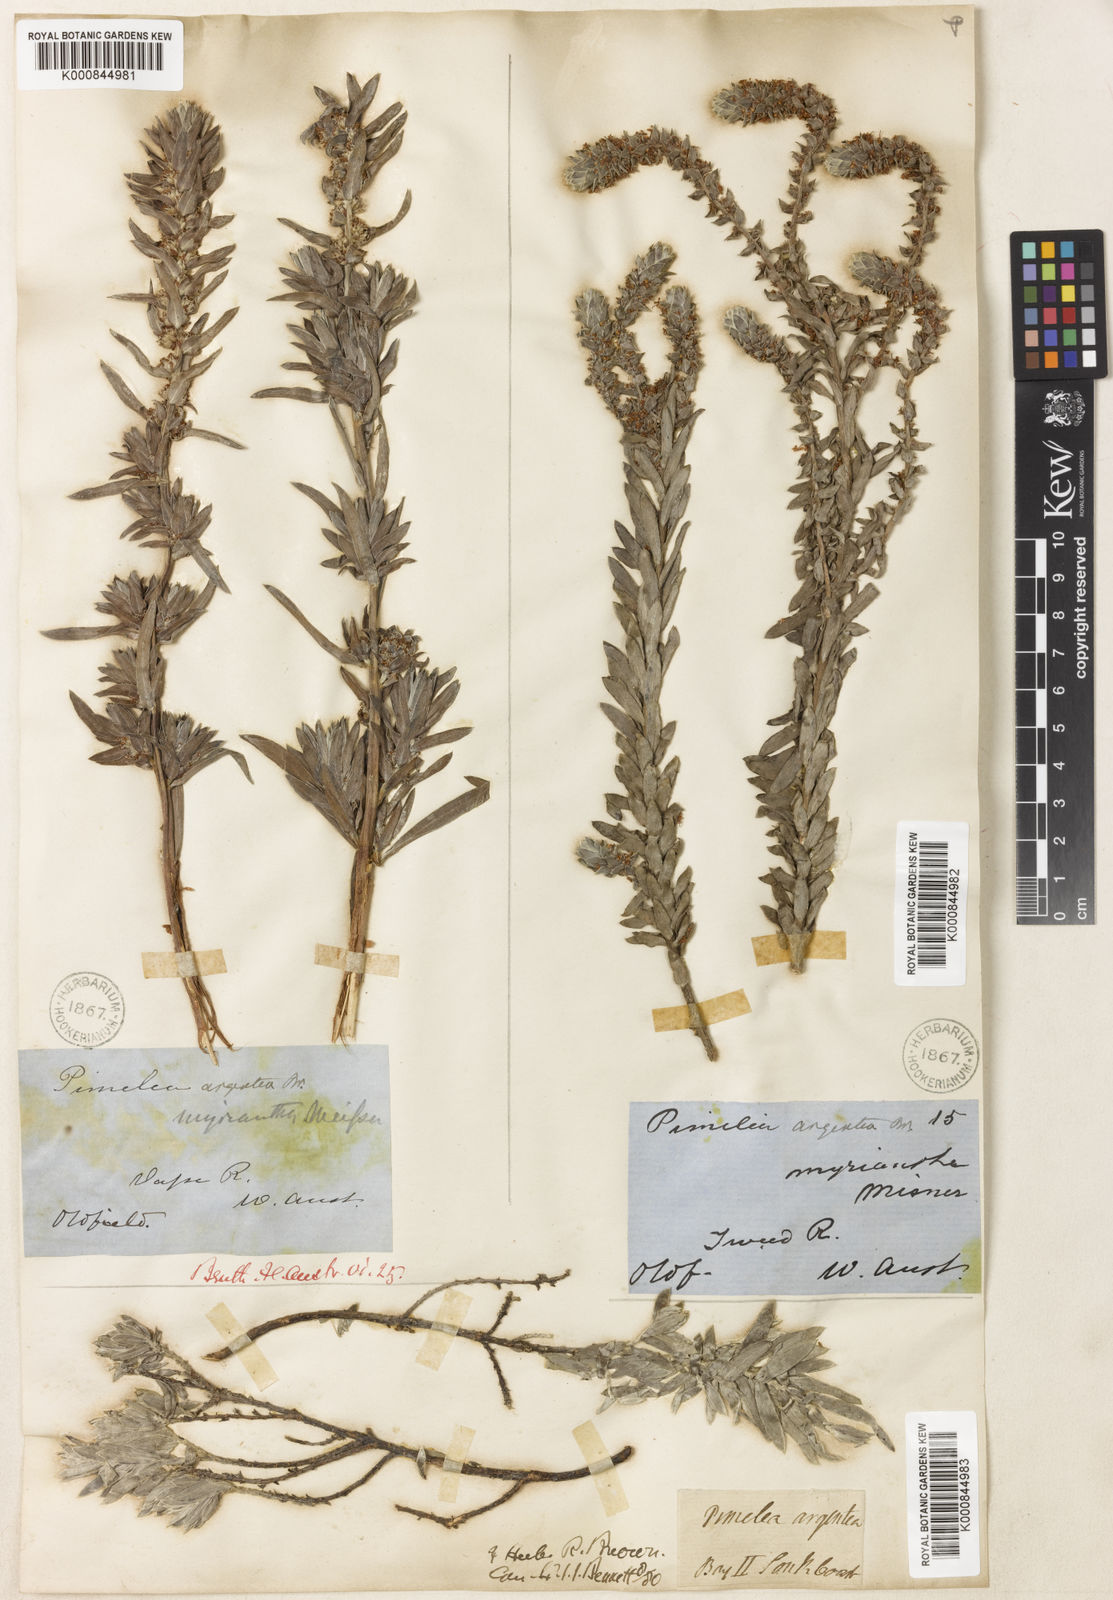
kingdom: Plantae
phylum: Tracheophyta
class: Magnoliopsida
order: Malvales
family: Thymelaeaceae
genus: Pimelea
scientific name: Pimelea argentea
